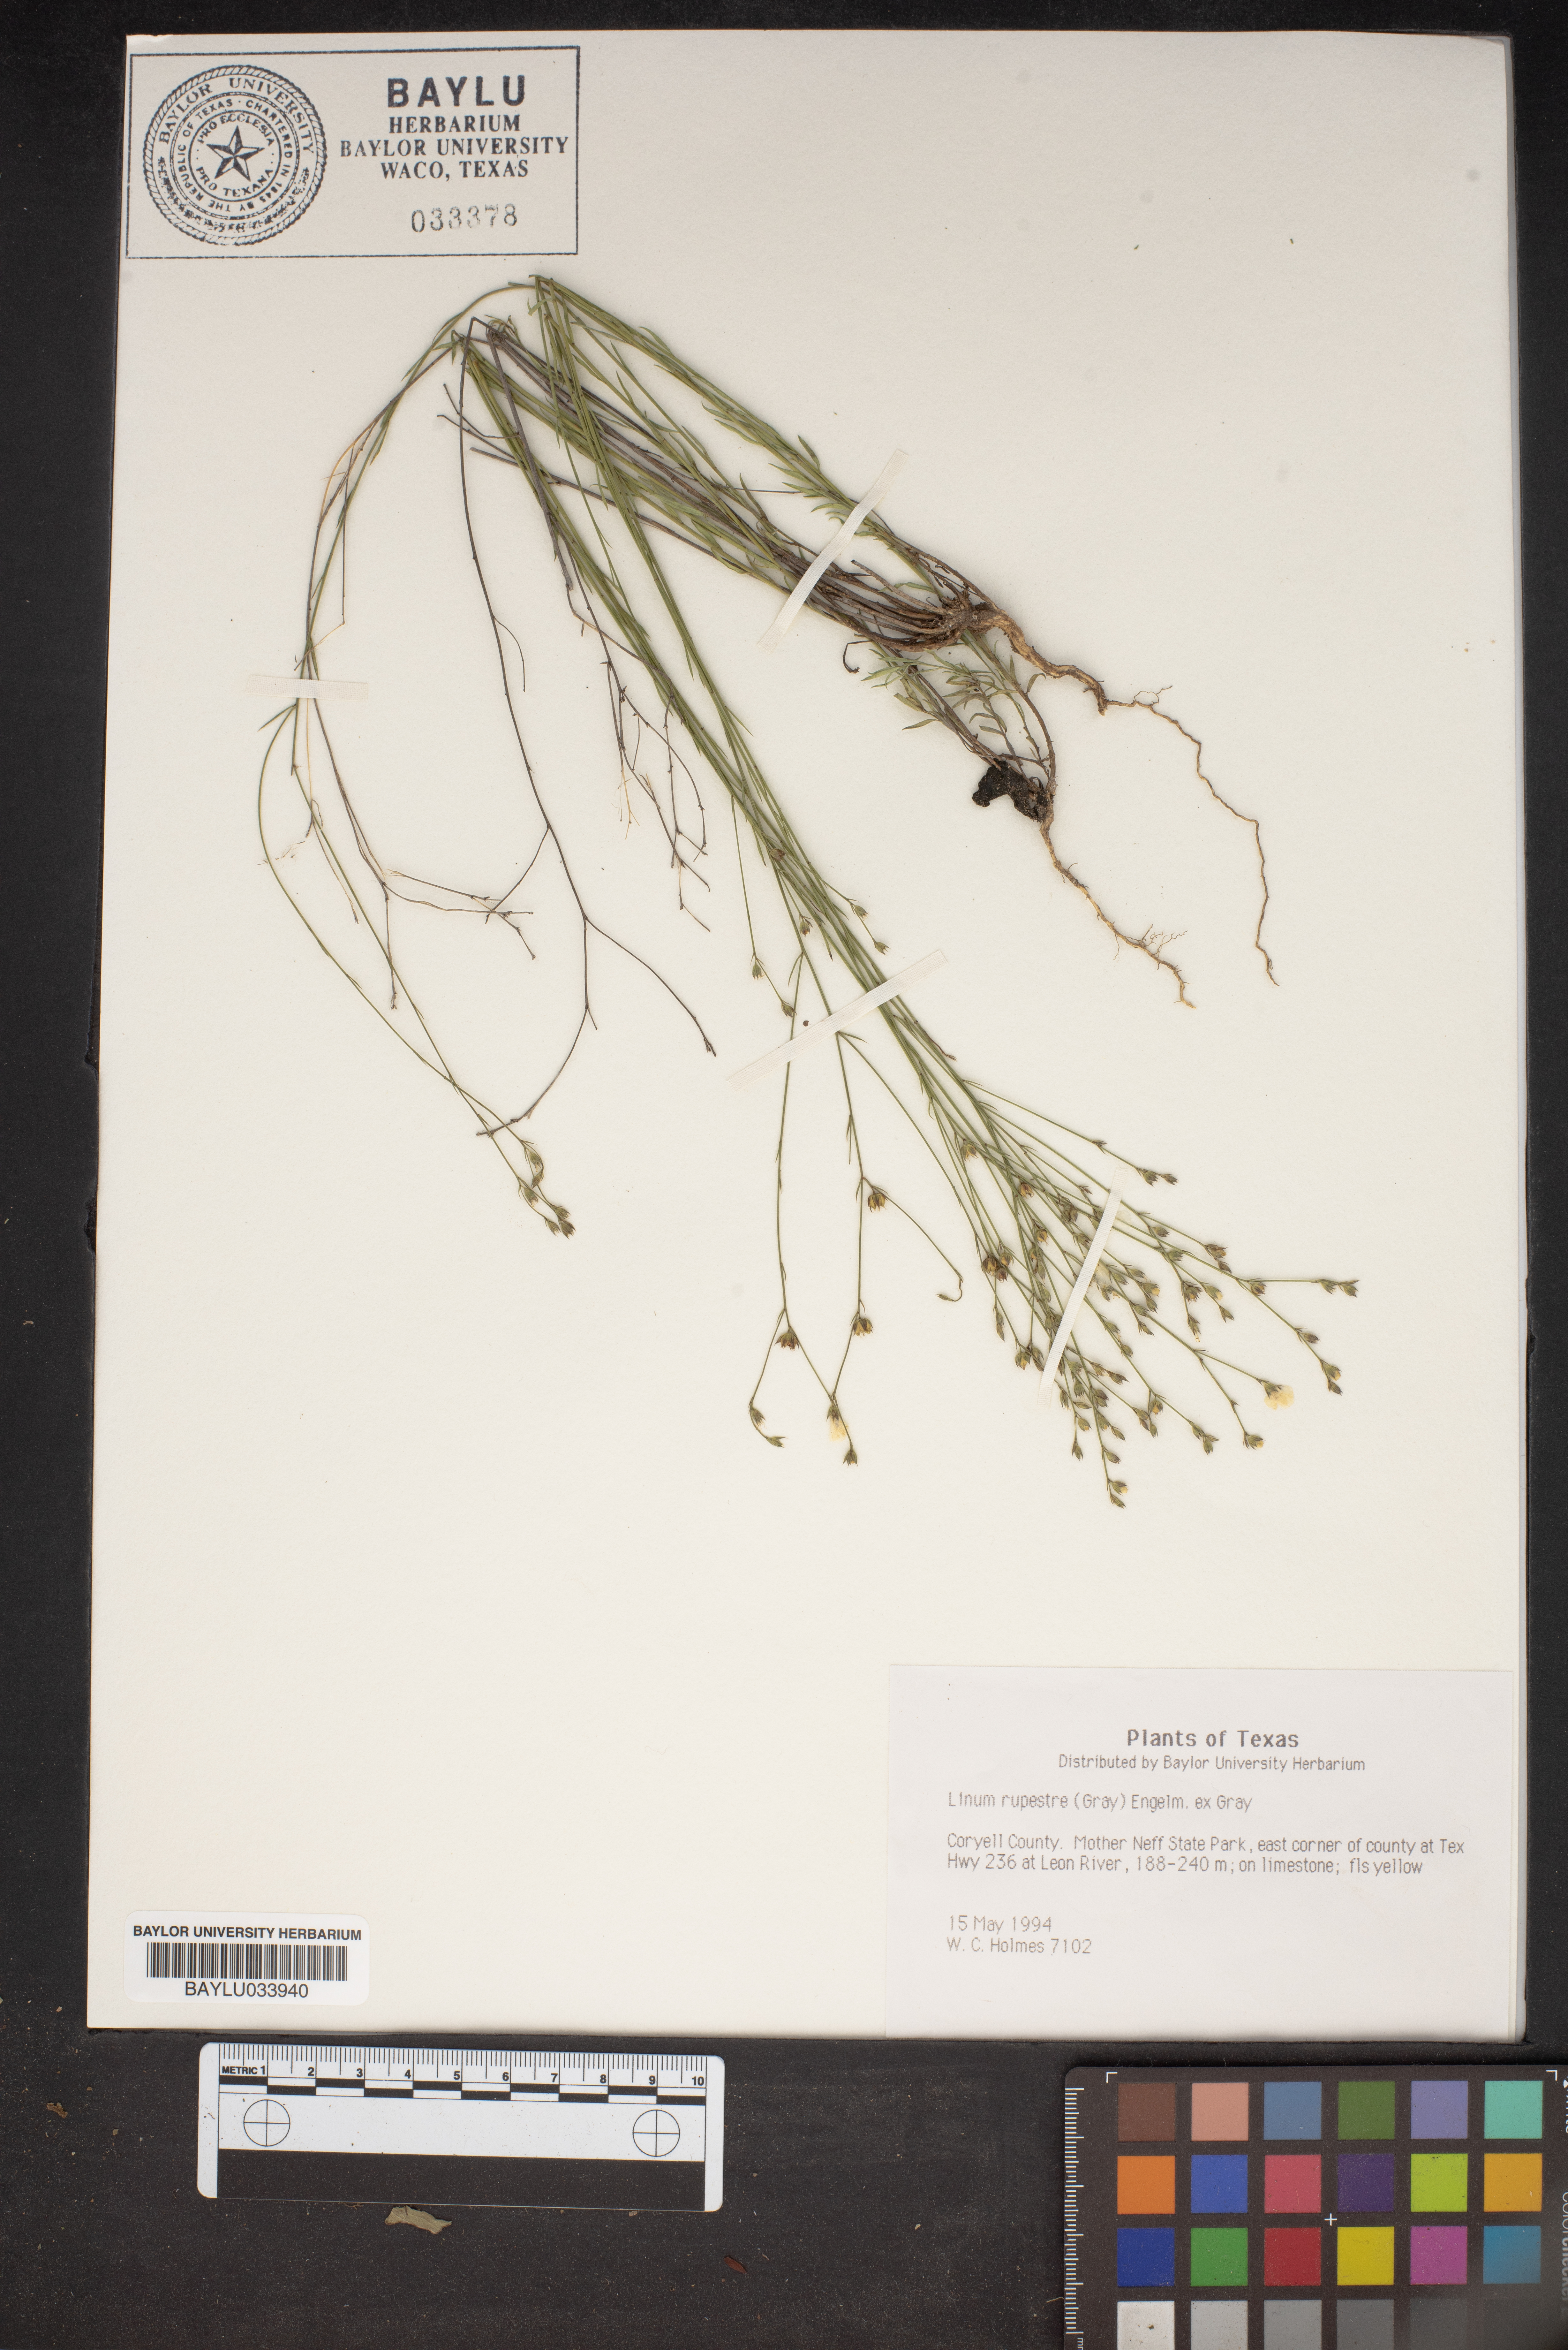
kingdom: Plantae
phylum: Tracheophyta
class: Magnoliopsida
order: Malpighiales
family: Linaceae
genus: Linum
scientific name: Linum rupestre
